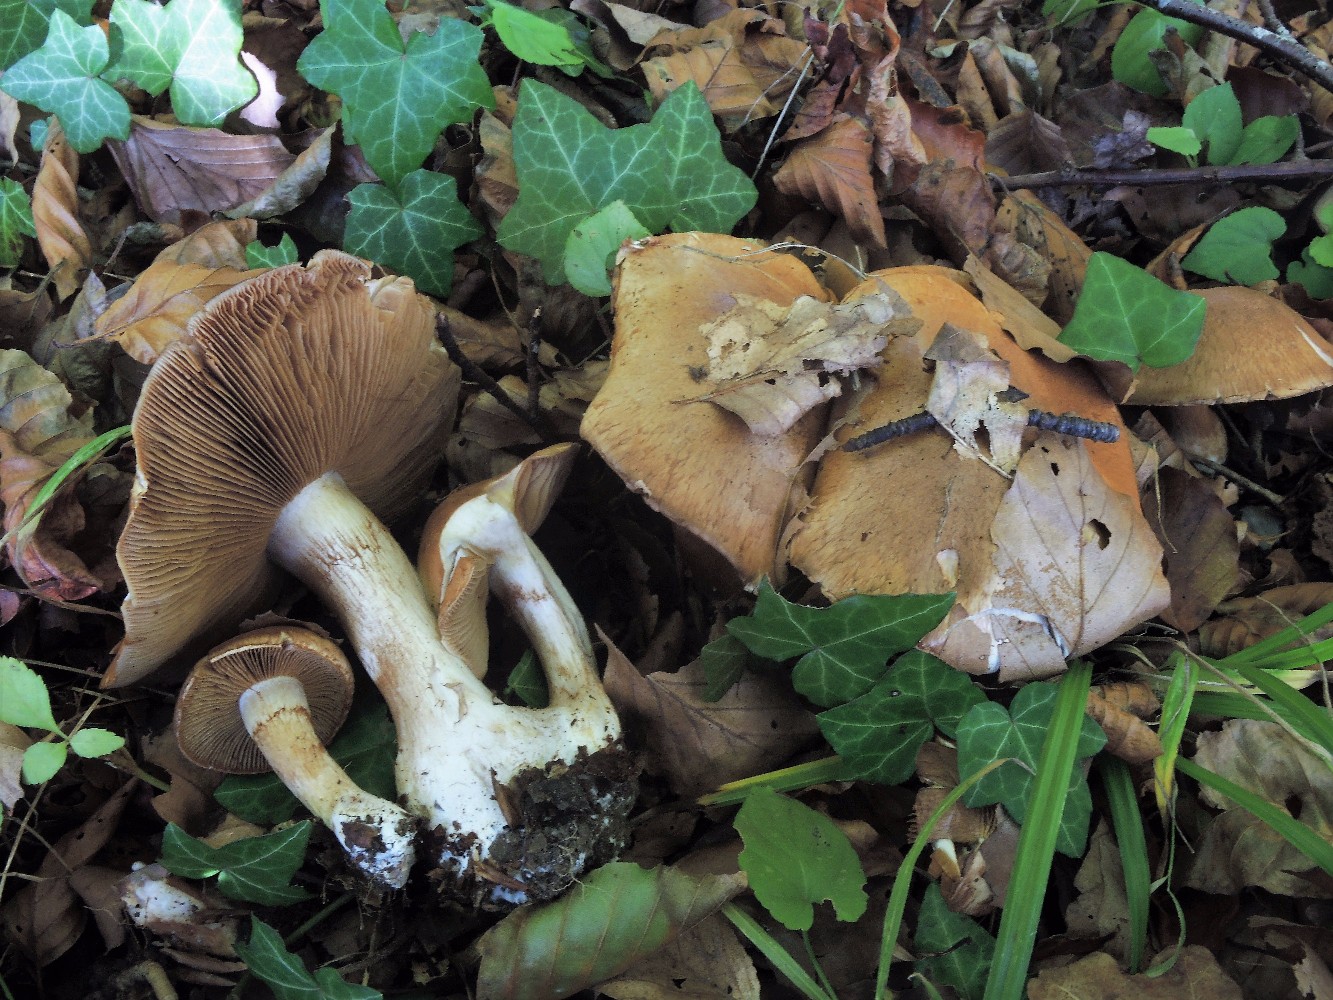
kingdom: Fungi
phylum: Basidiomycota
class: Agaricomycetes
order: Agaricales
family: Cortinariaceae
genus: Cortinarius
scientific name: Cortinarius largus
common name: violetrandet slørhat
